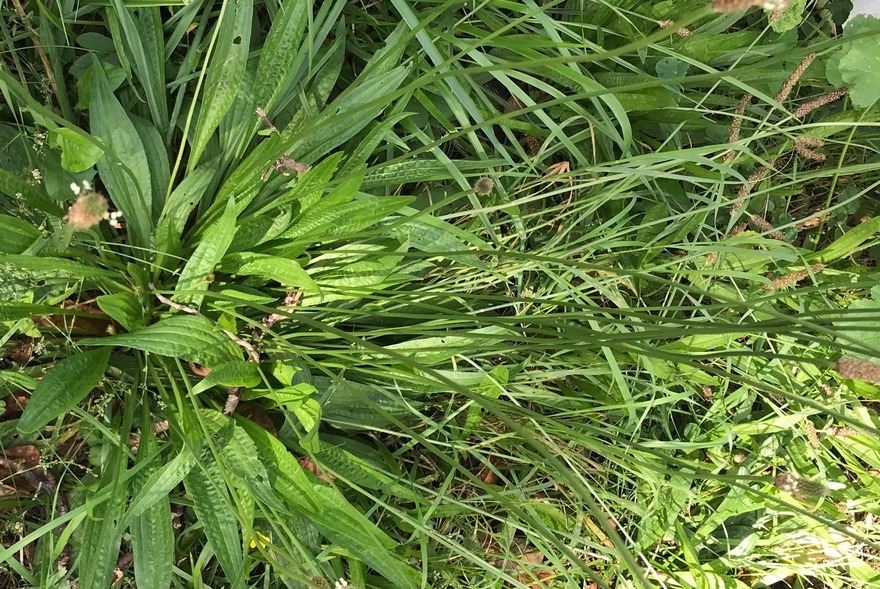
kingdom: Plantae
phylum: Tracheophyta
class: Magnoliopsida
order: Lamiales
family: Plantaginaceae
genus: Plantago
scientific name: Plantago lanceolata
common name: Lancet-vejbred
